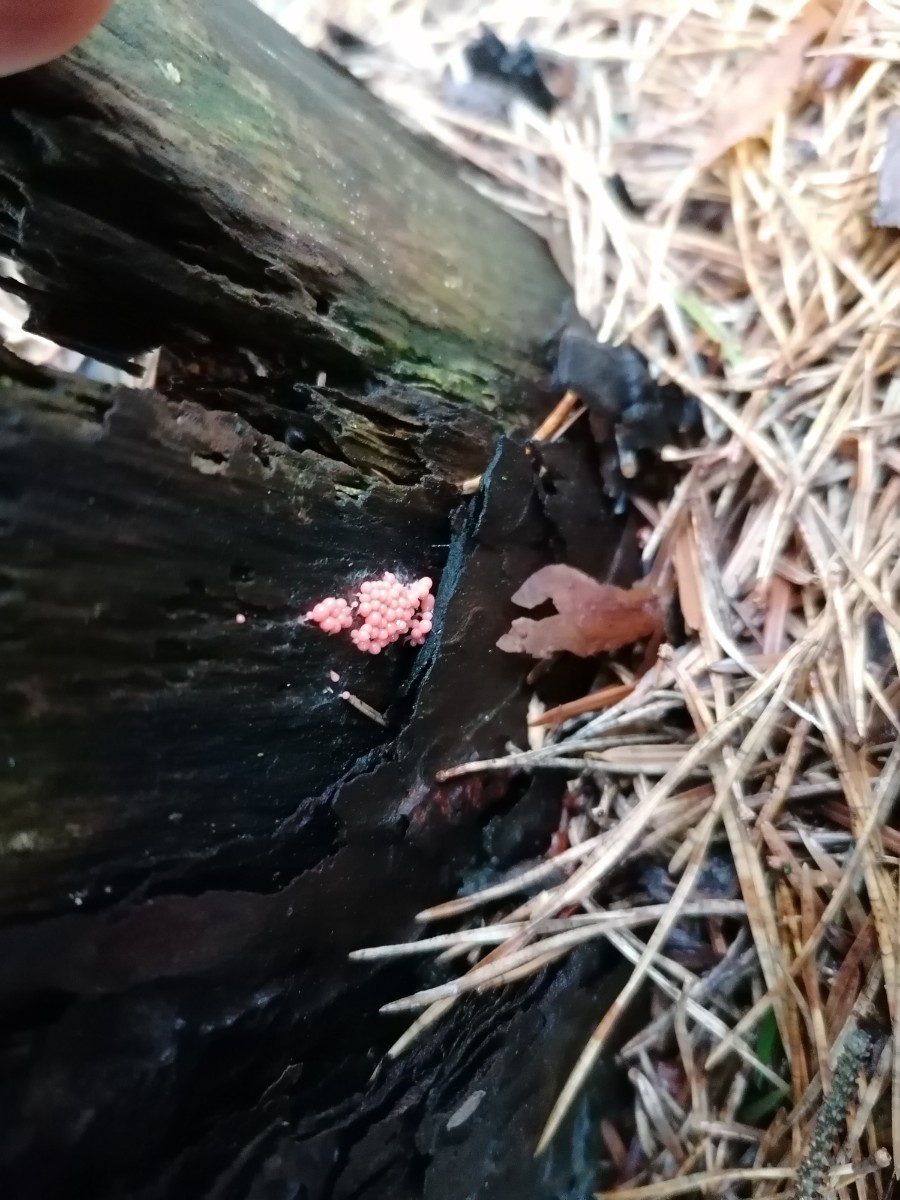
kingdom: Protozoa
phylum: Mycetozoa
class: Myxomycetes
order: Trichiales
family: Trichiaceae
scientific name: Trichiaceae
